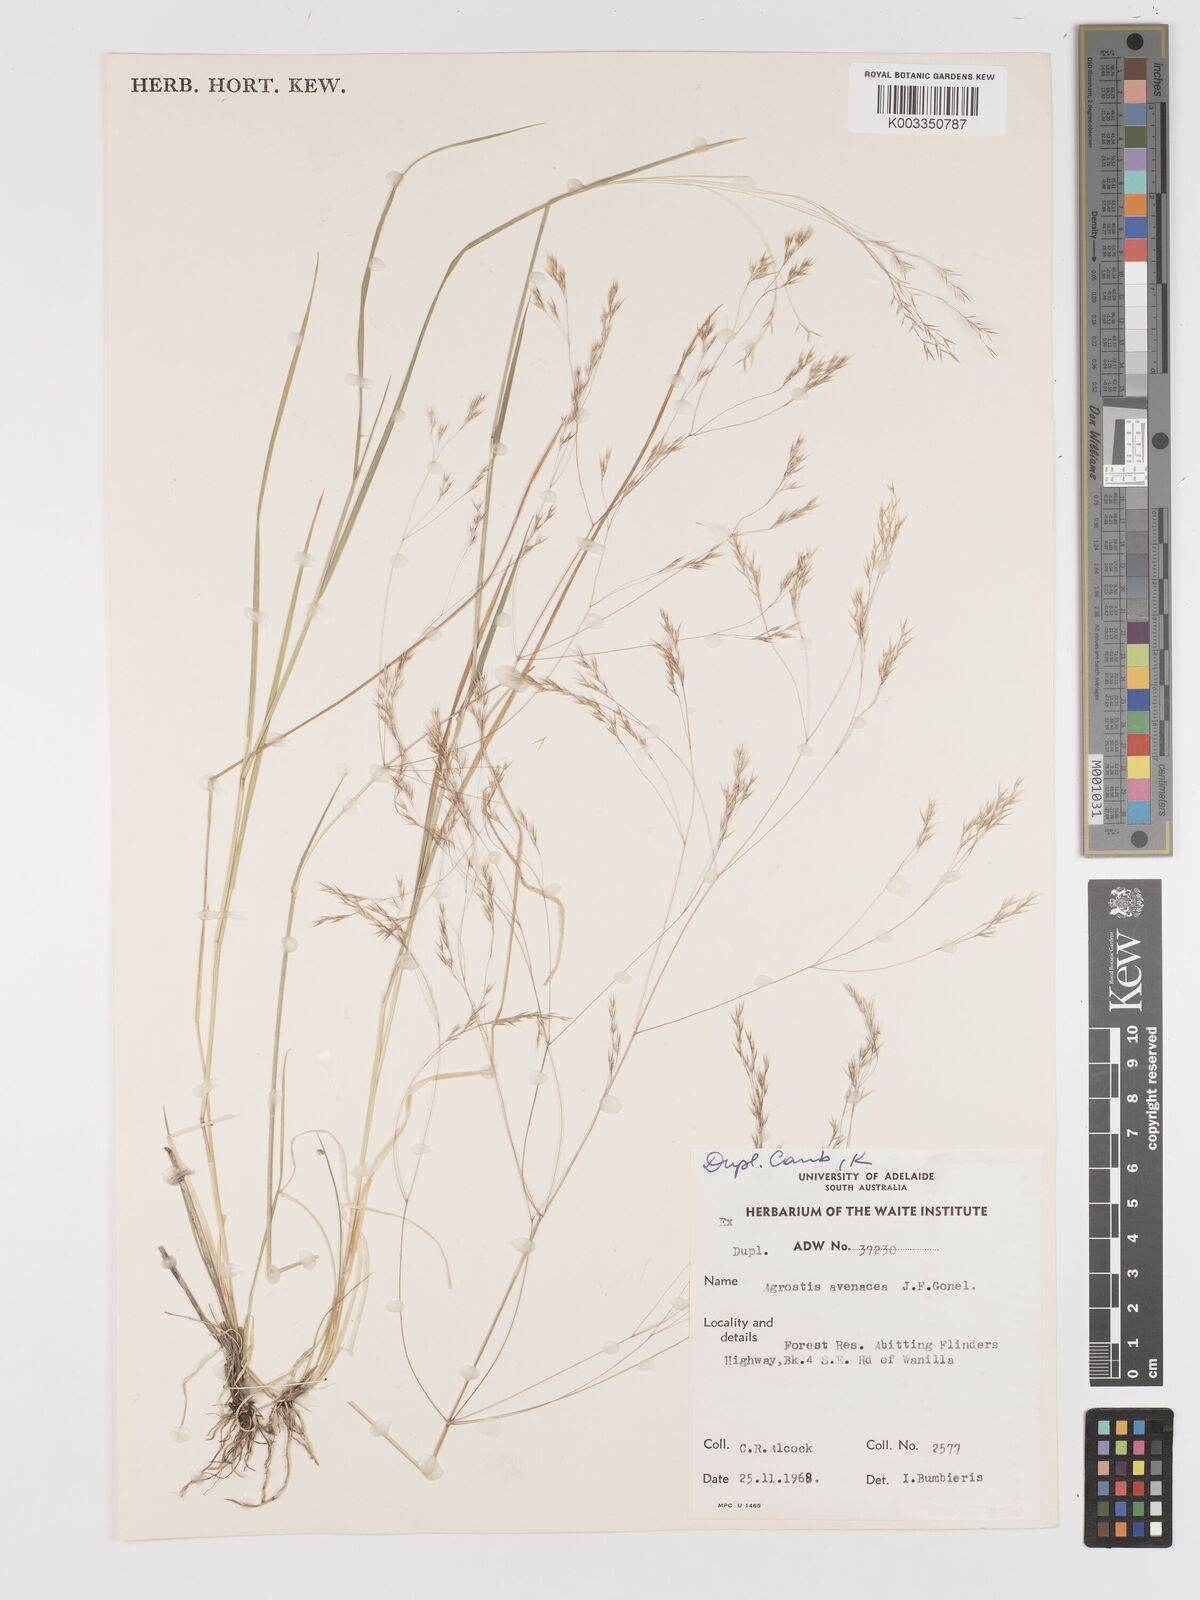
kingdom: Plantae
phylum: Tracheophyta
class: Liliopsida
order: Poales
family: Poaceae
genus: Lachnagrostis
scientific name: Lachnagrostis filiformis
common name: Bentgrass
